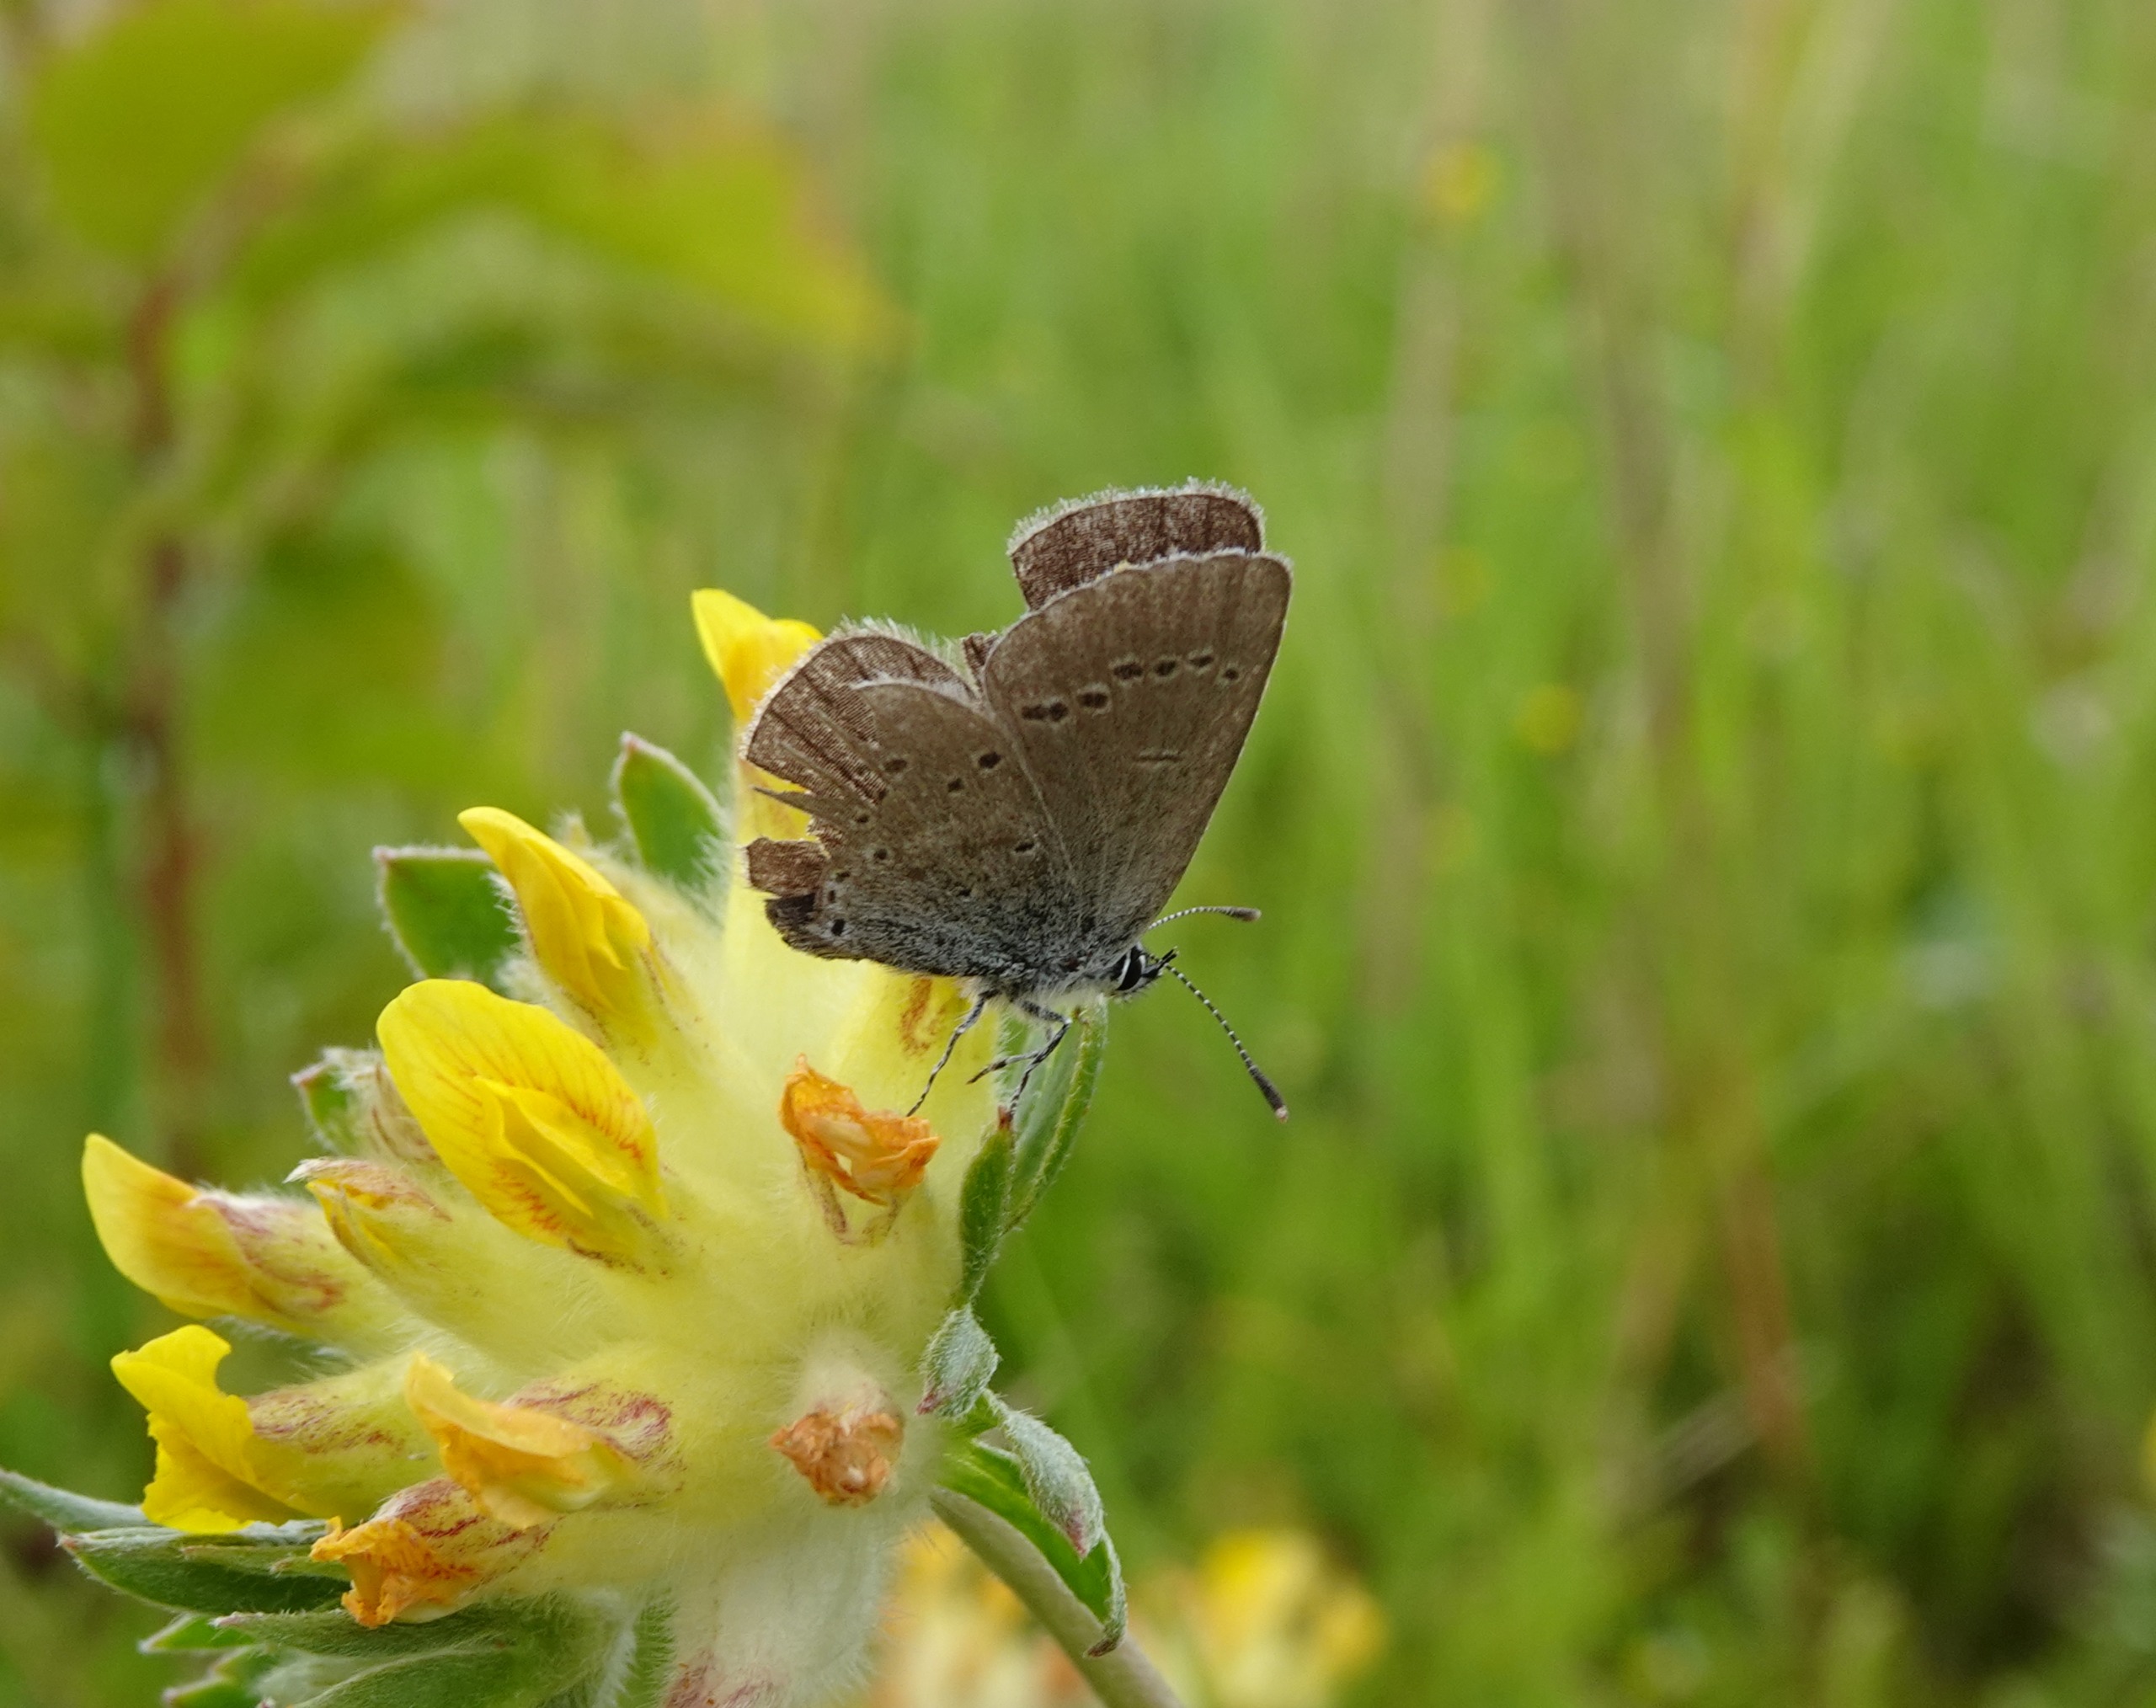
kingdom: Animalia
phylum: Arthropoda
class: Insecta
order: Lepidoptera
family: Lycaenidae
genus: Cupido
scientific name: Cupido minimus
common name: Dværgblåfugl
